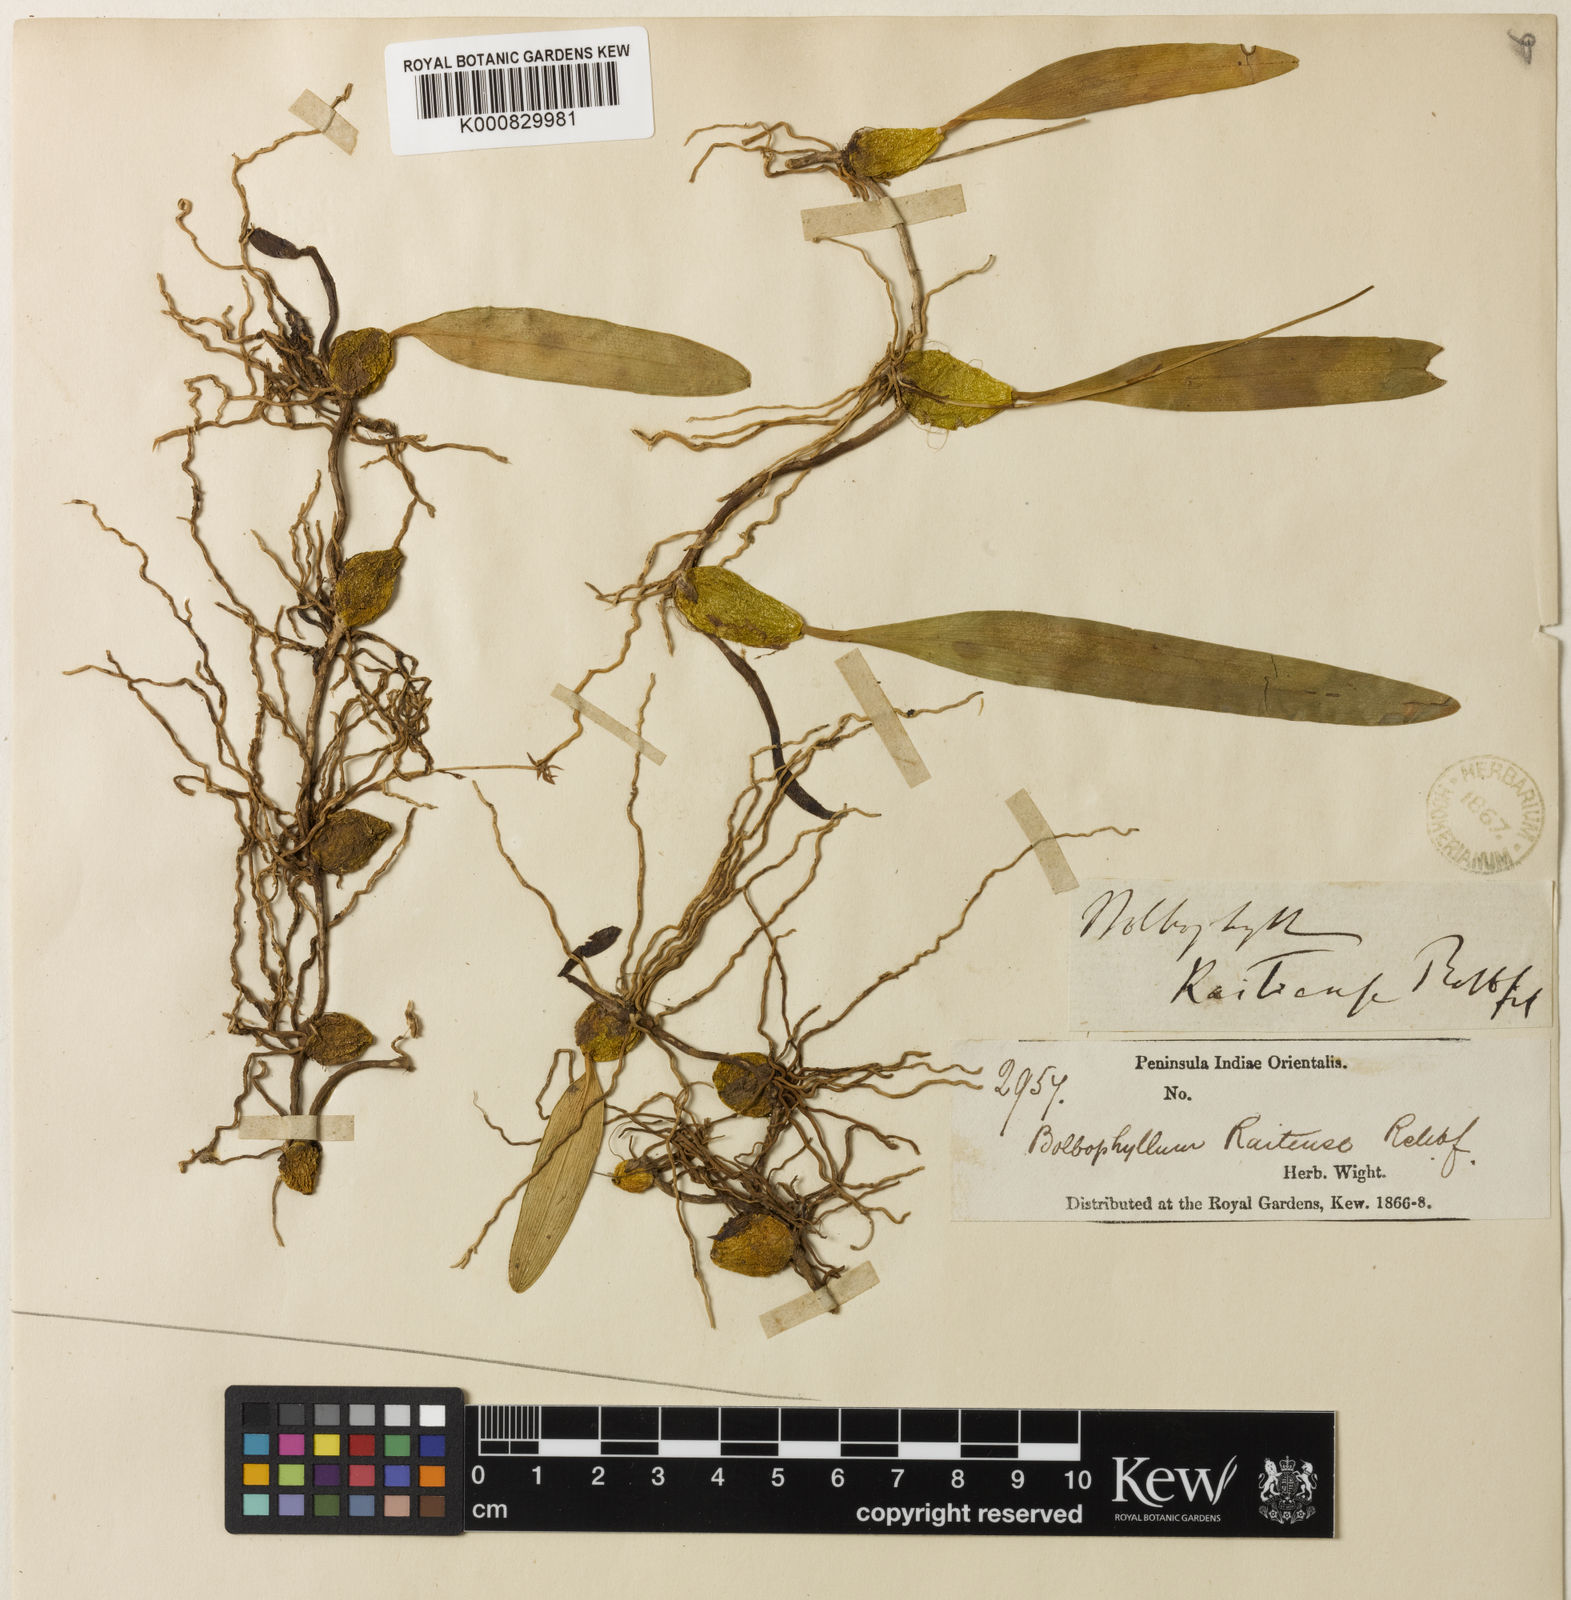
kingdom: Plantae
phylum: Tracheophyta
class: Liliopsida
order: Asparagales
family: Orchidaceae
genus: Bulbophyllum
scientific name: Bulbophyllum kaitiense
